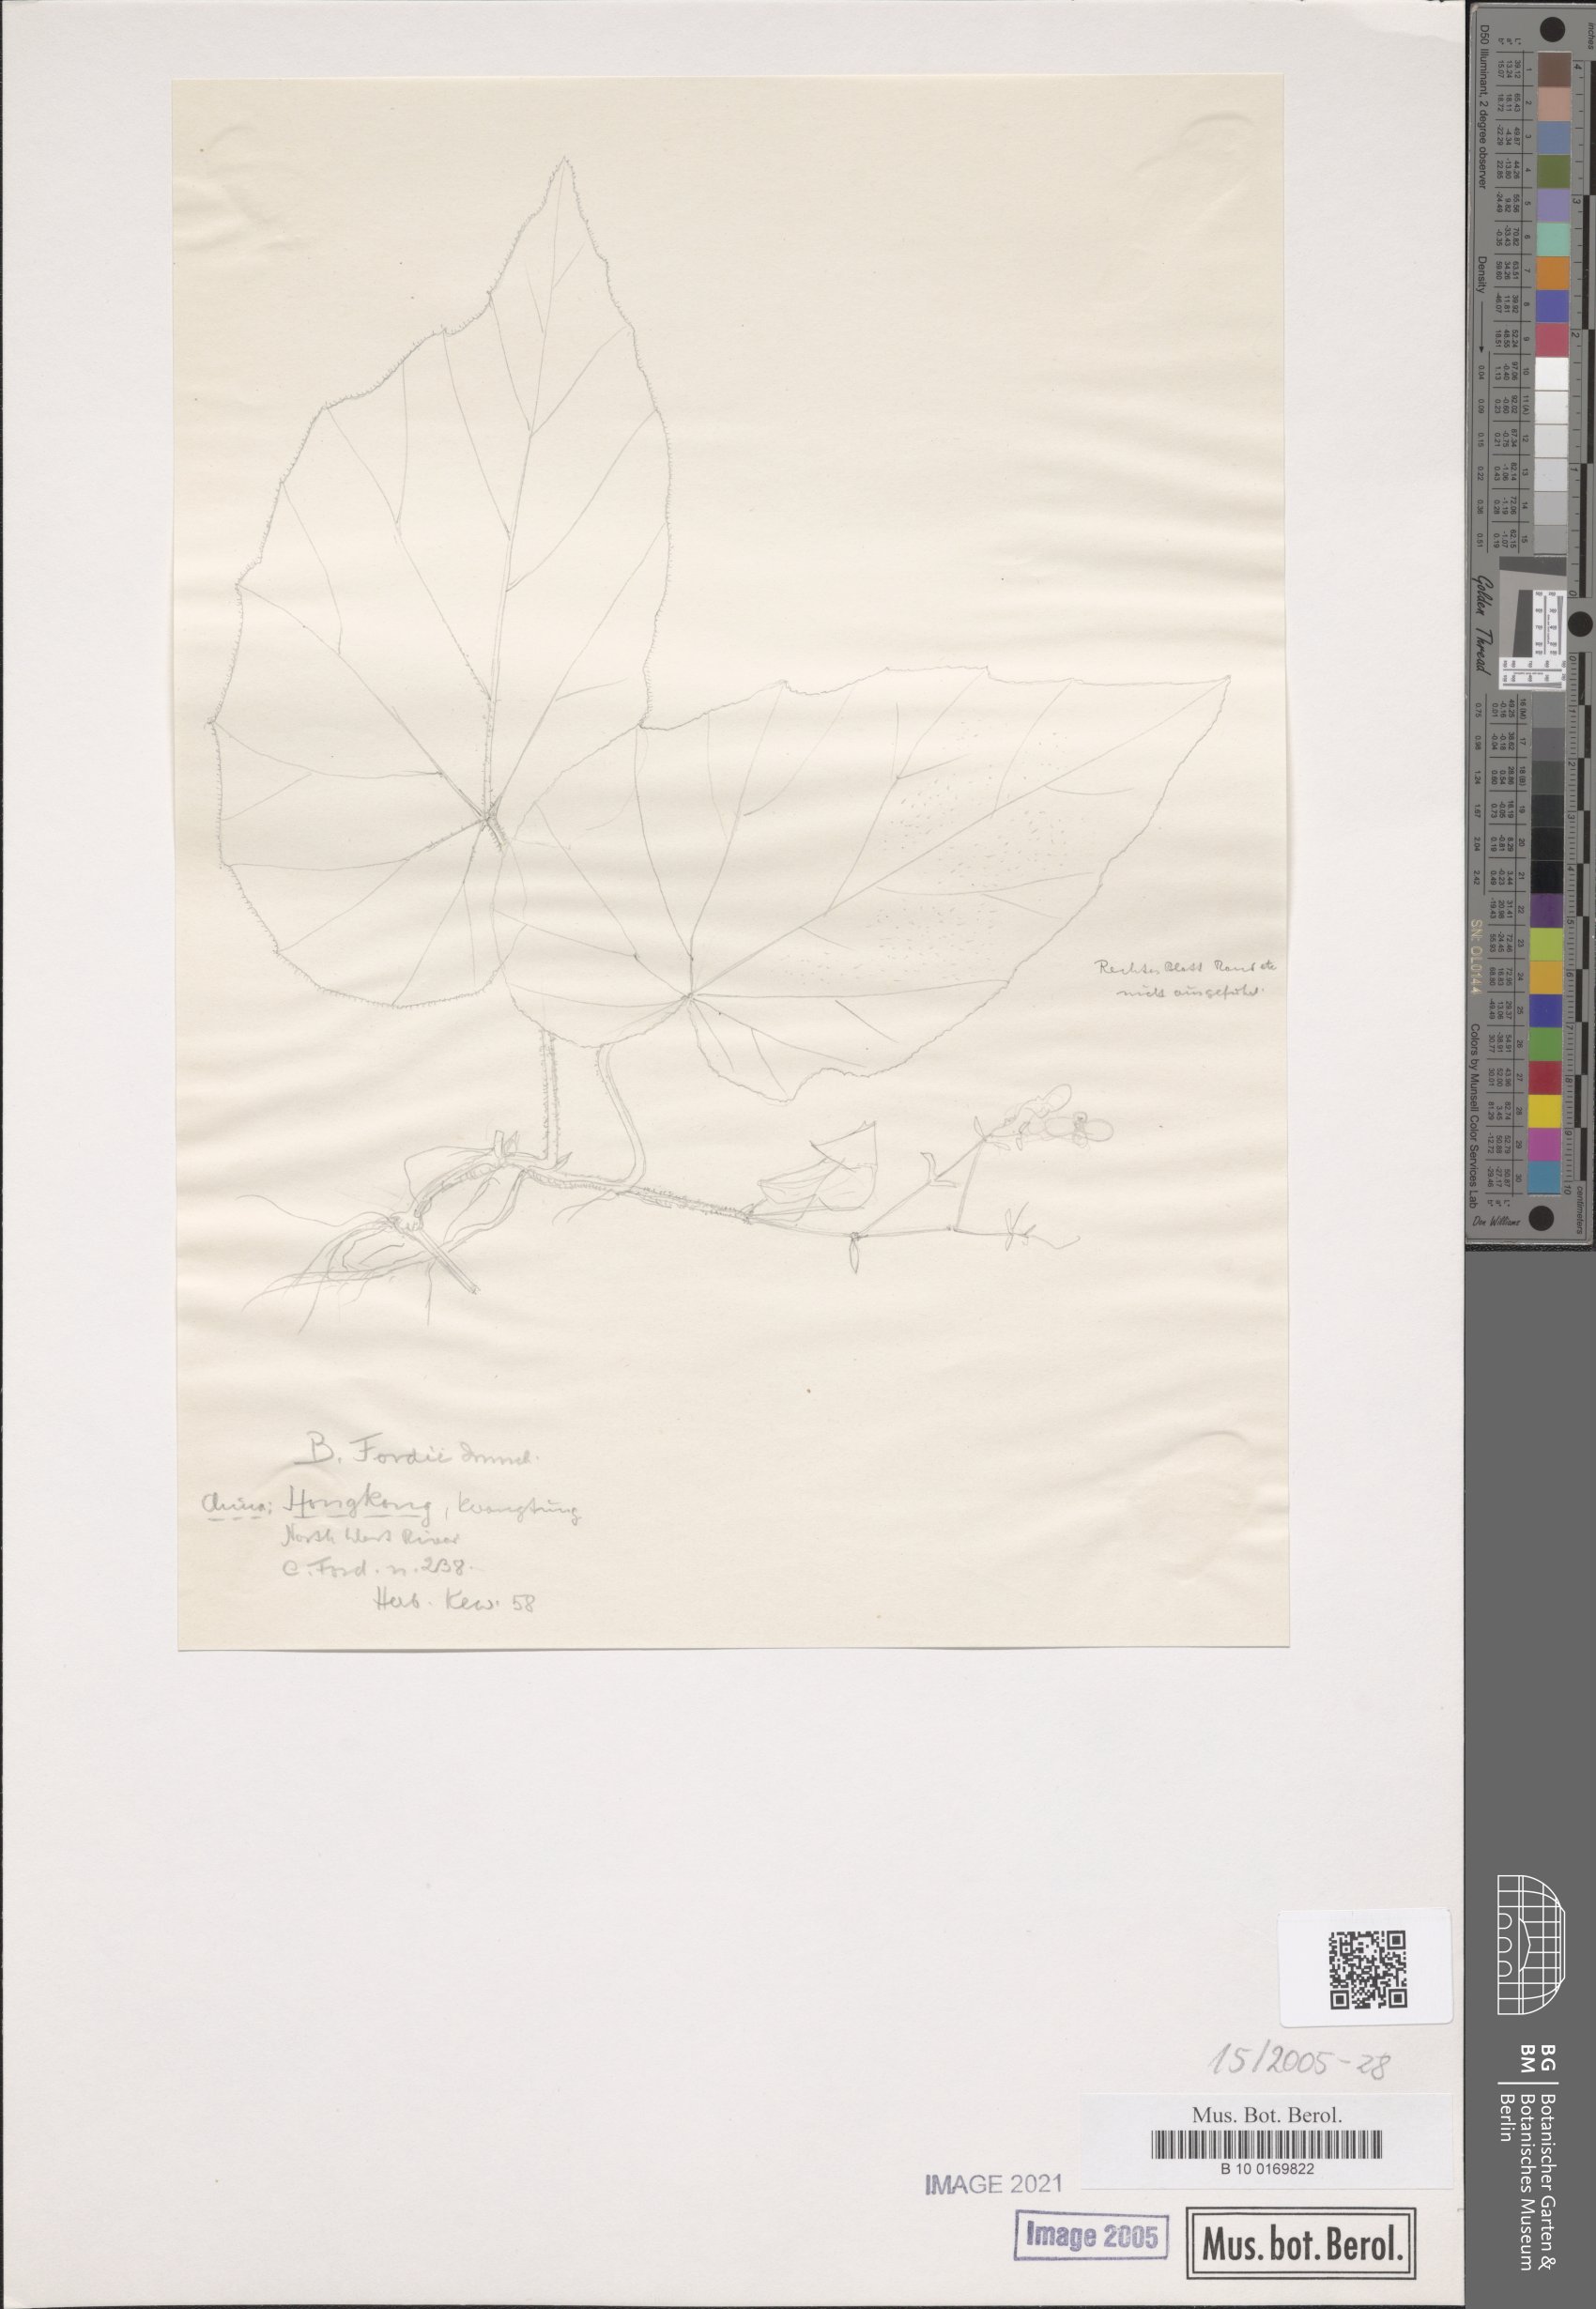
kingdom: Plantae
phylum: Tracheophyta
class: Magnoliopsida
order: Cucurbitales
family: Begoniaceae
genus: Begonia
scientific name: Begonia dryadis
